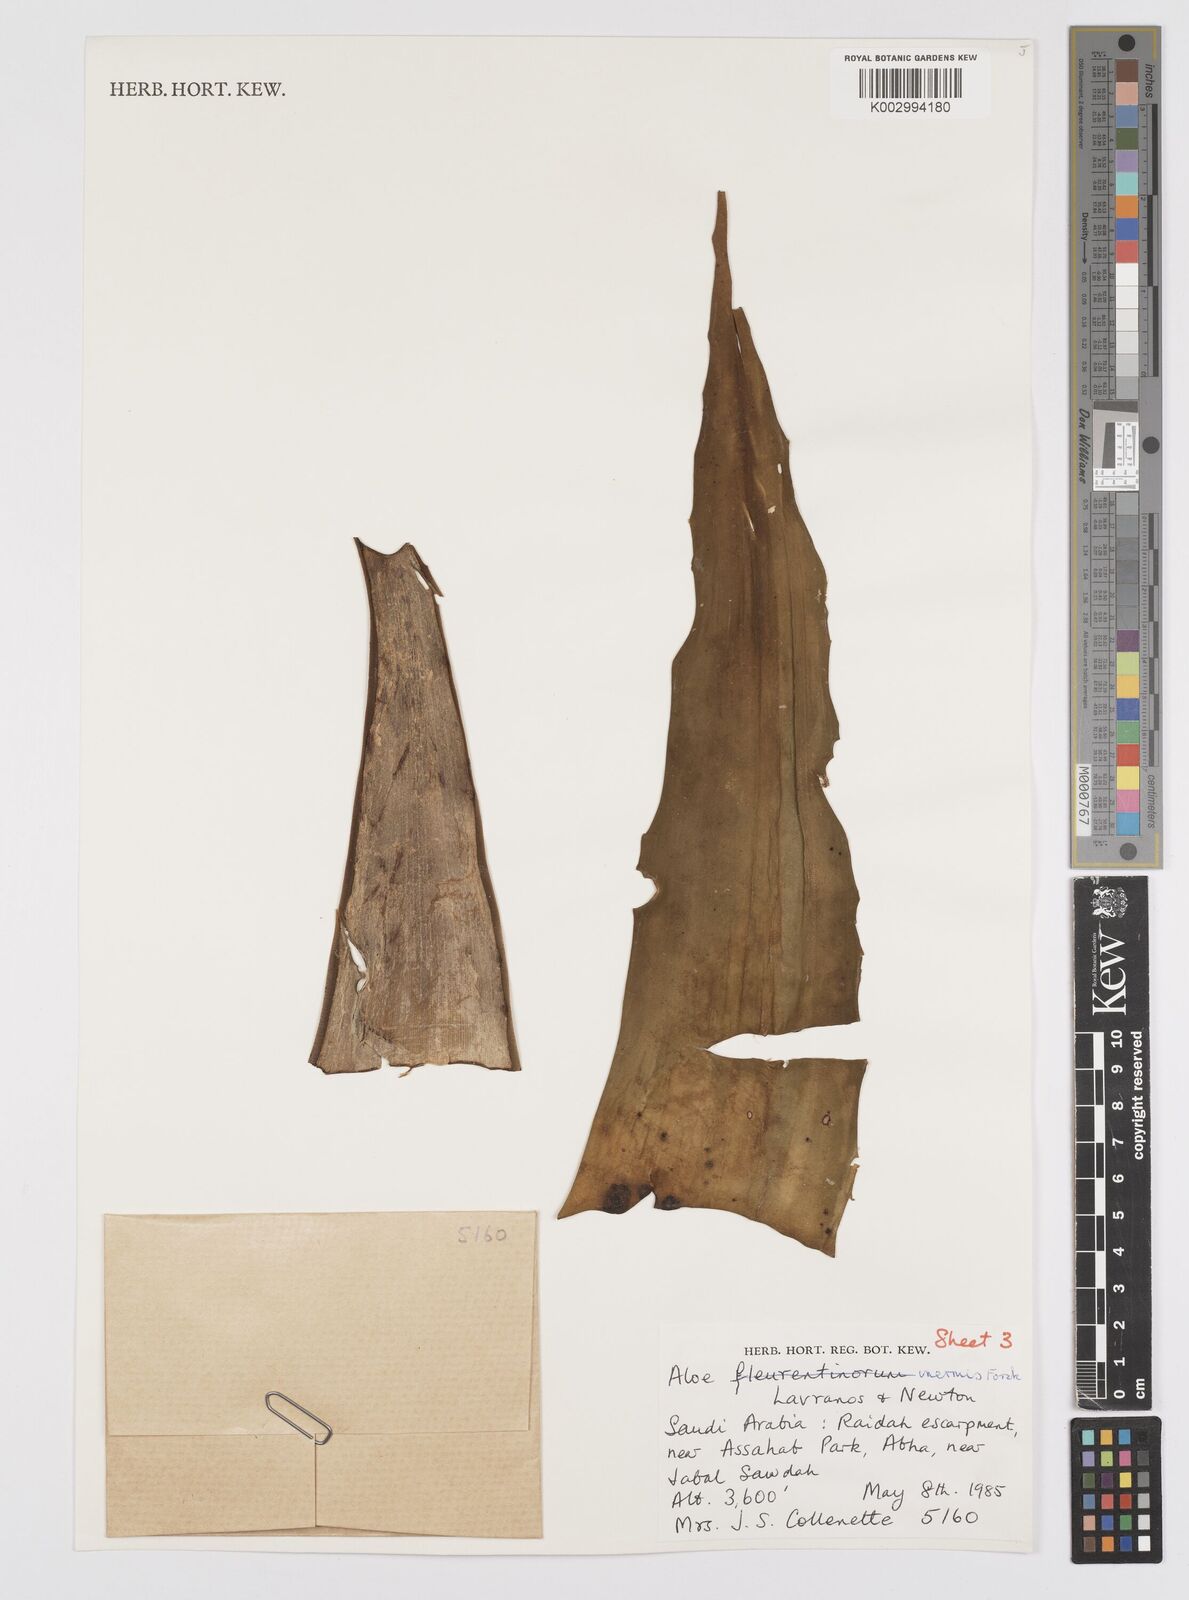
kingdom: Plantae
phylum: Tracheophyta
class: Liliopsida
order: Asparagales
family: Asphodelaceae
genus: Aloe
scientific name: Aloe fleurentiniorum
